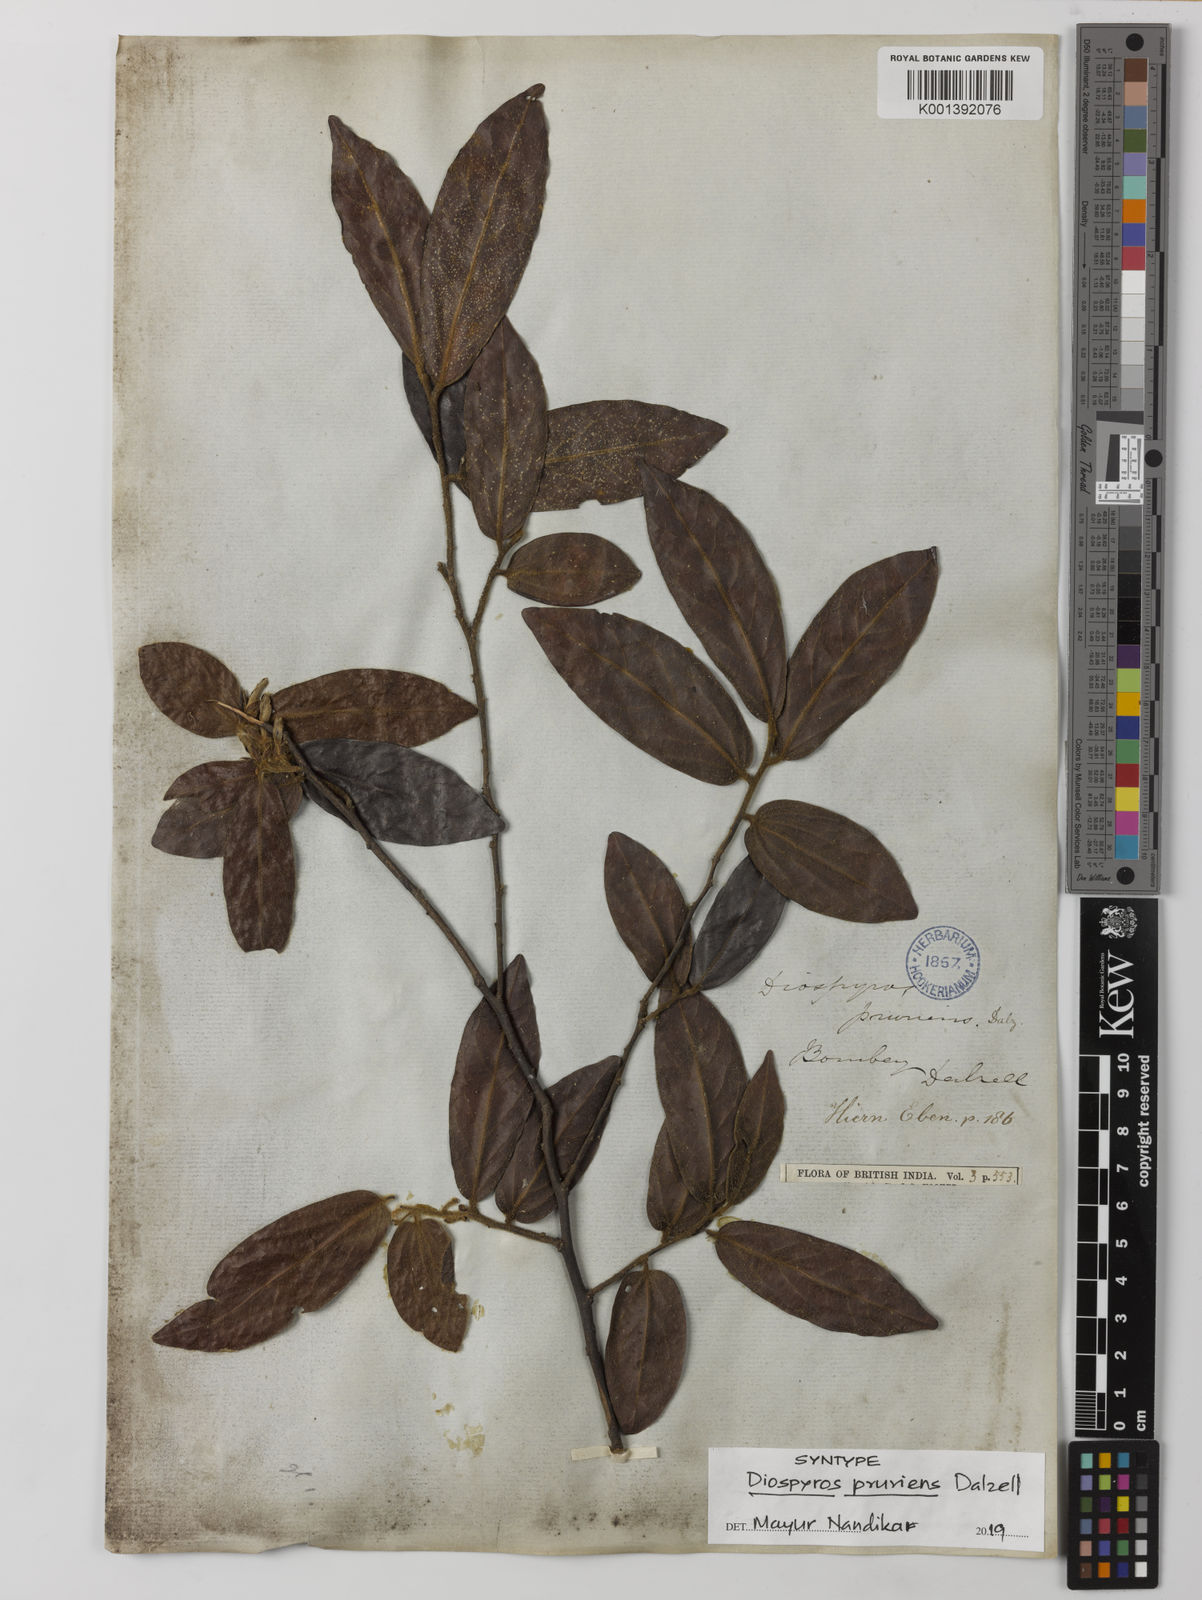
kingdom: Plantae
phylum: Tracheophyta
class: Magnoliopsida
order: Ericales
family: Ebenaceae
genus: Diospyros
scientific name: Diospyros pruriens
